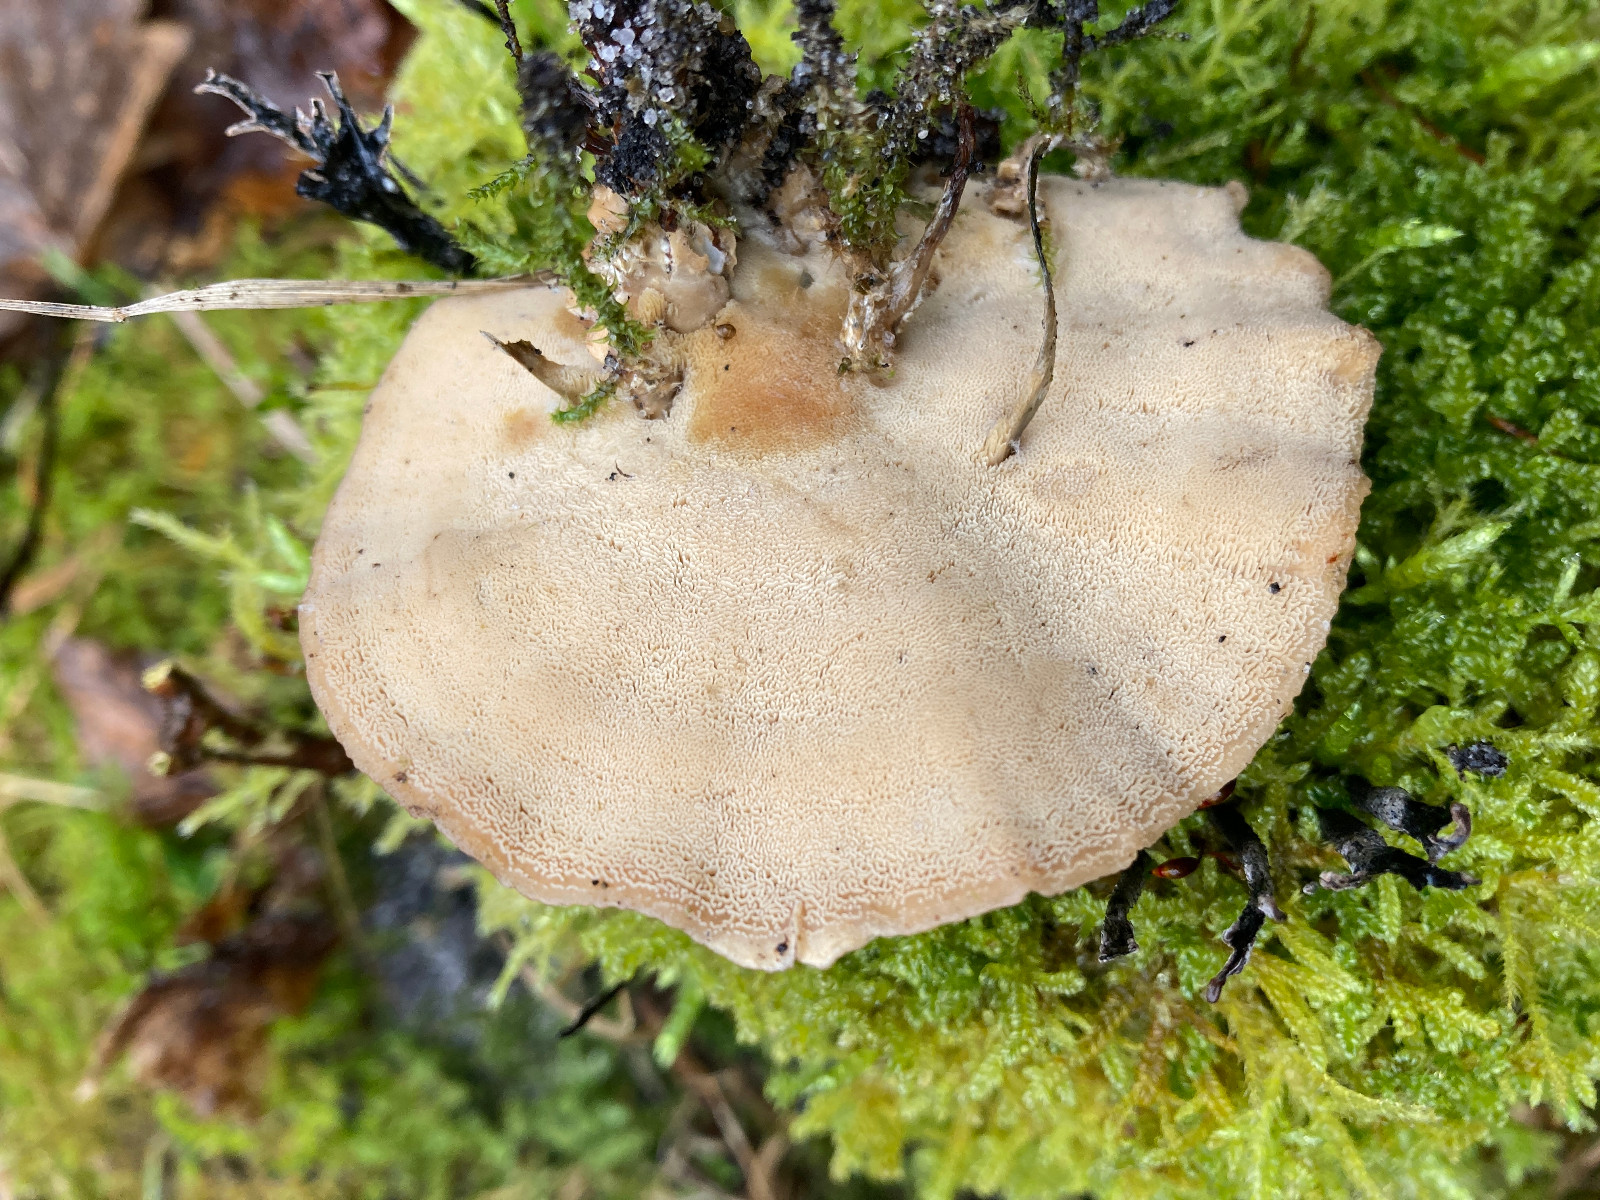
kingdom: Fungi
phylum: Basidiomycota
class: Agaricomycetes
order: Polyporales
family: Phanerochaetaceae
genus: Bjerkandera
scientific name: Bjerkandera fumosa
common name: grågul sodporesvamp
